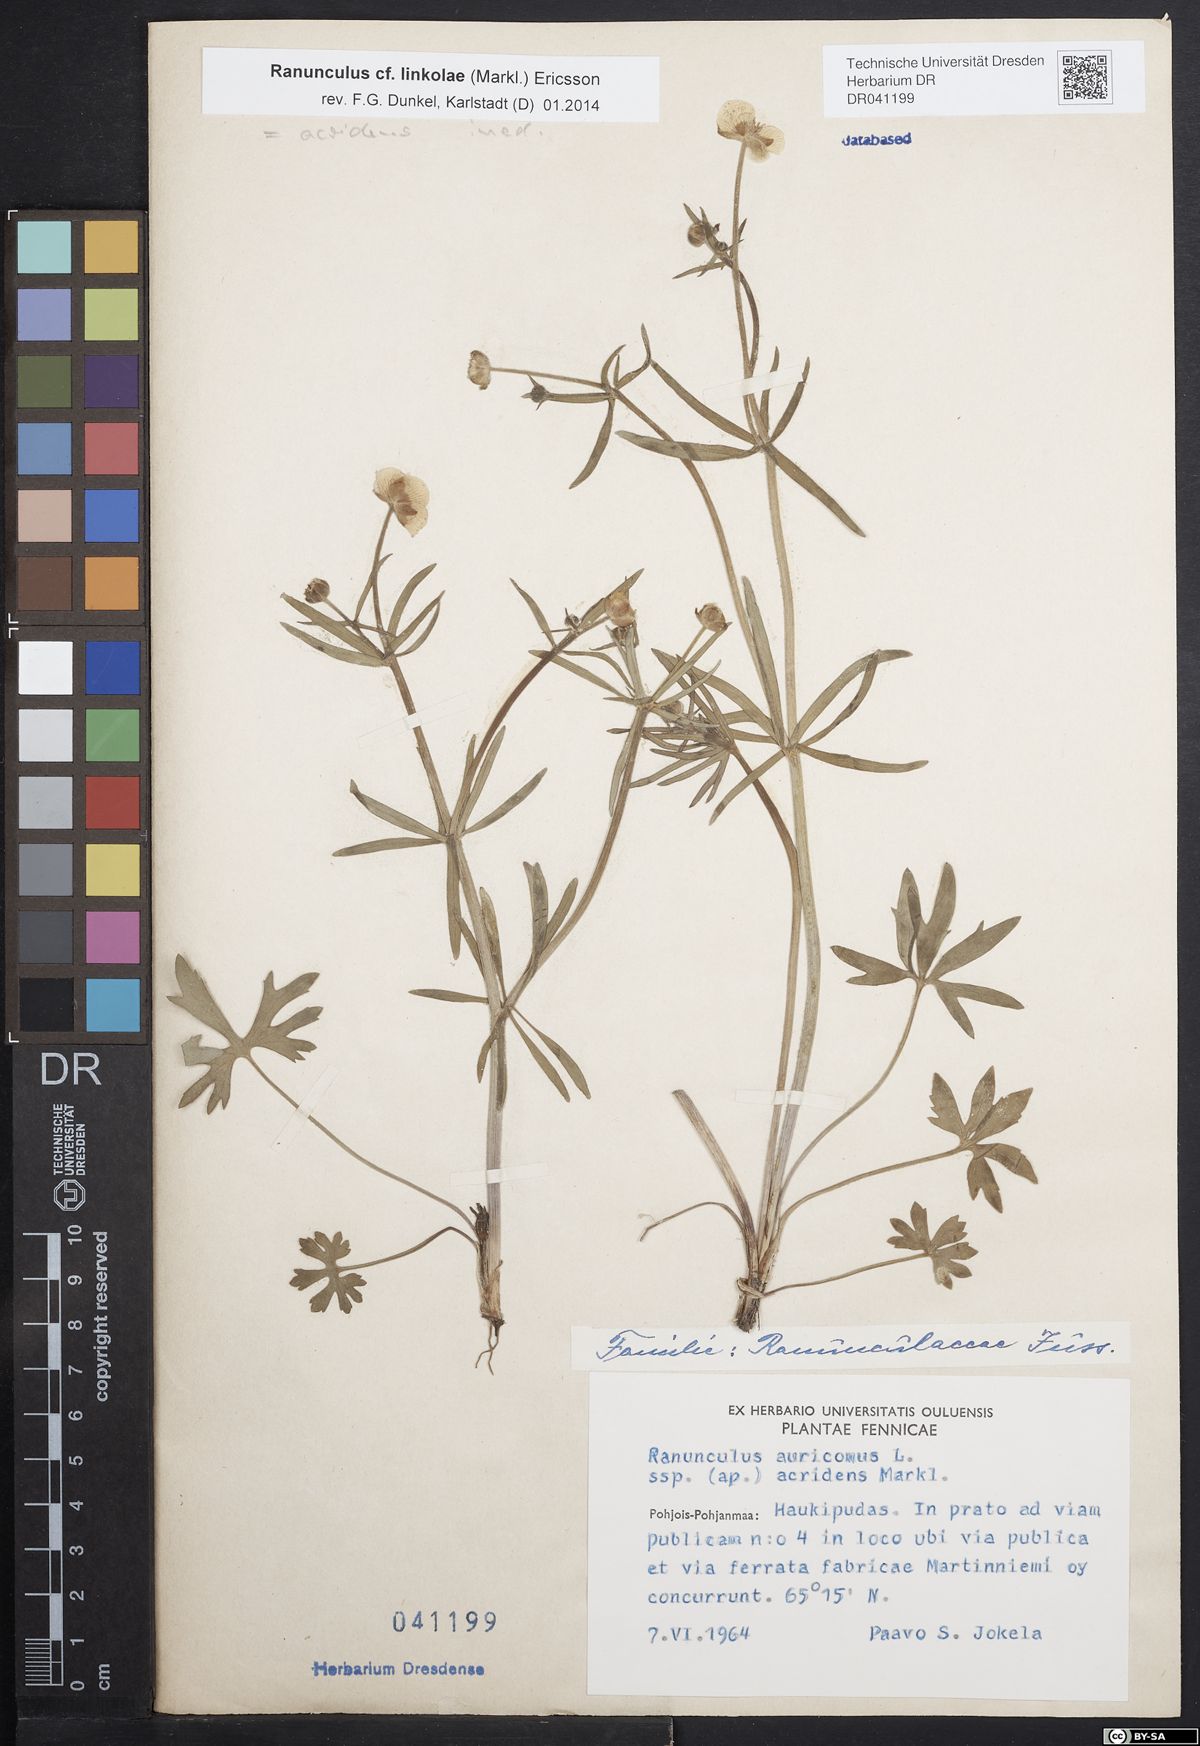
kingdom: Plantae
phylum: Tracheophyta
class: Magnoliopsida
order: Ranunculales
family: Ranunculaceae
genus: Ranunculus
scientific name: Ranunculus linkolae
